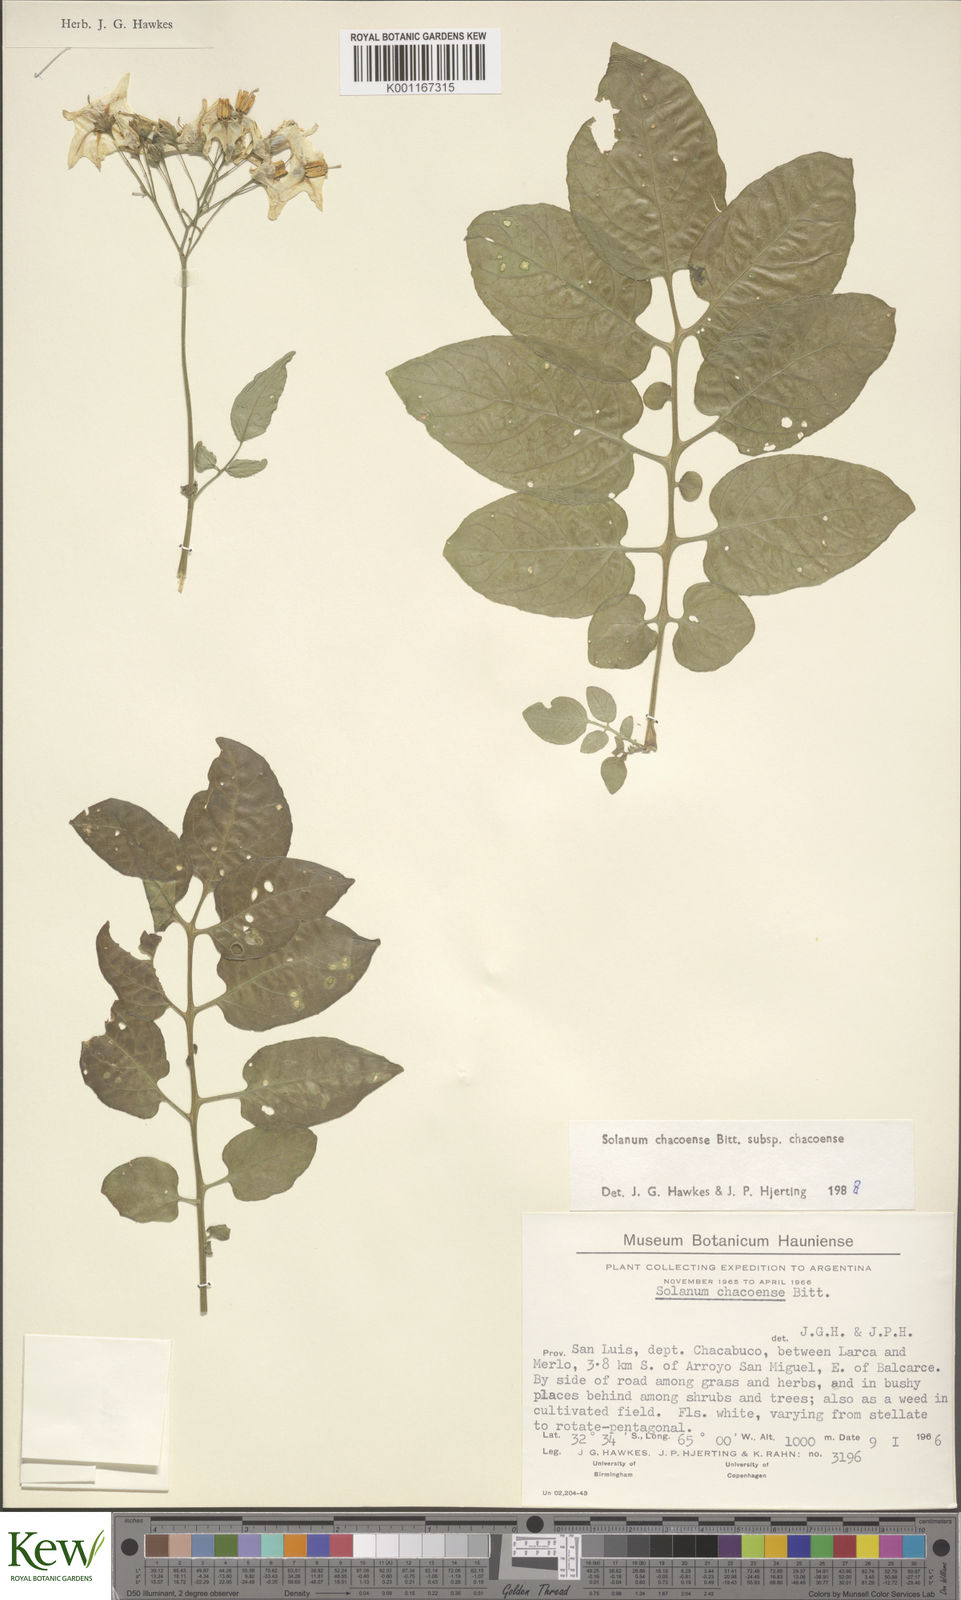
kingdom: Plantae
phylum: Tracheophyta
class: Magnoliopsida
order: Solanales
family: Solanaceae
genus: Solanum
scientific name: Solanum chacoense
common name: Chaco potato
